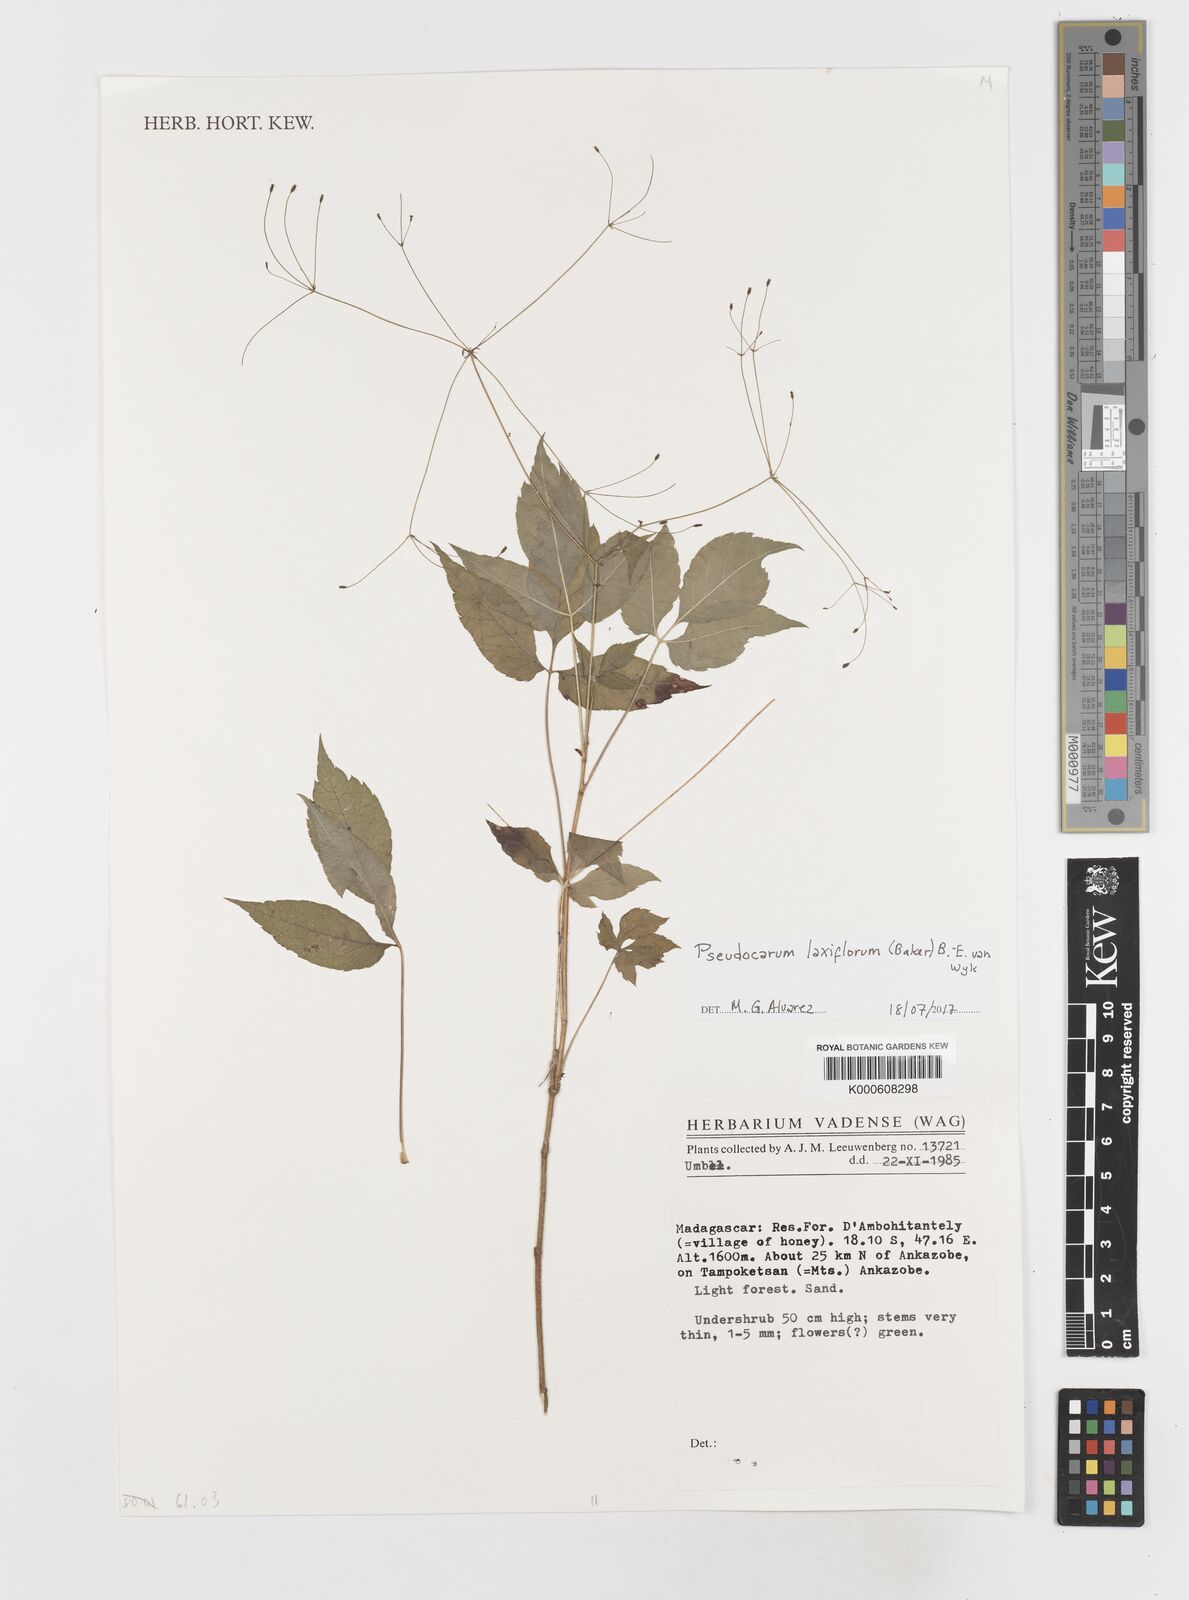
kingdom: Plantae
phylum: Tracheophyta
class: Magnoliopsida
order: Apiales
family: Apiaceae
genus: Pseudocarum
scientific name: Pseudocarum laxiflorum
